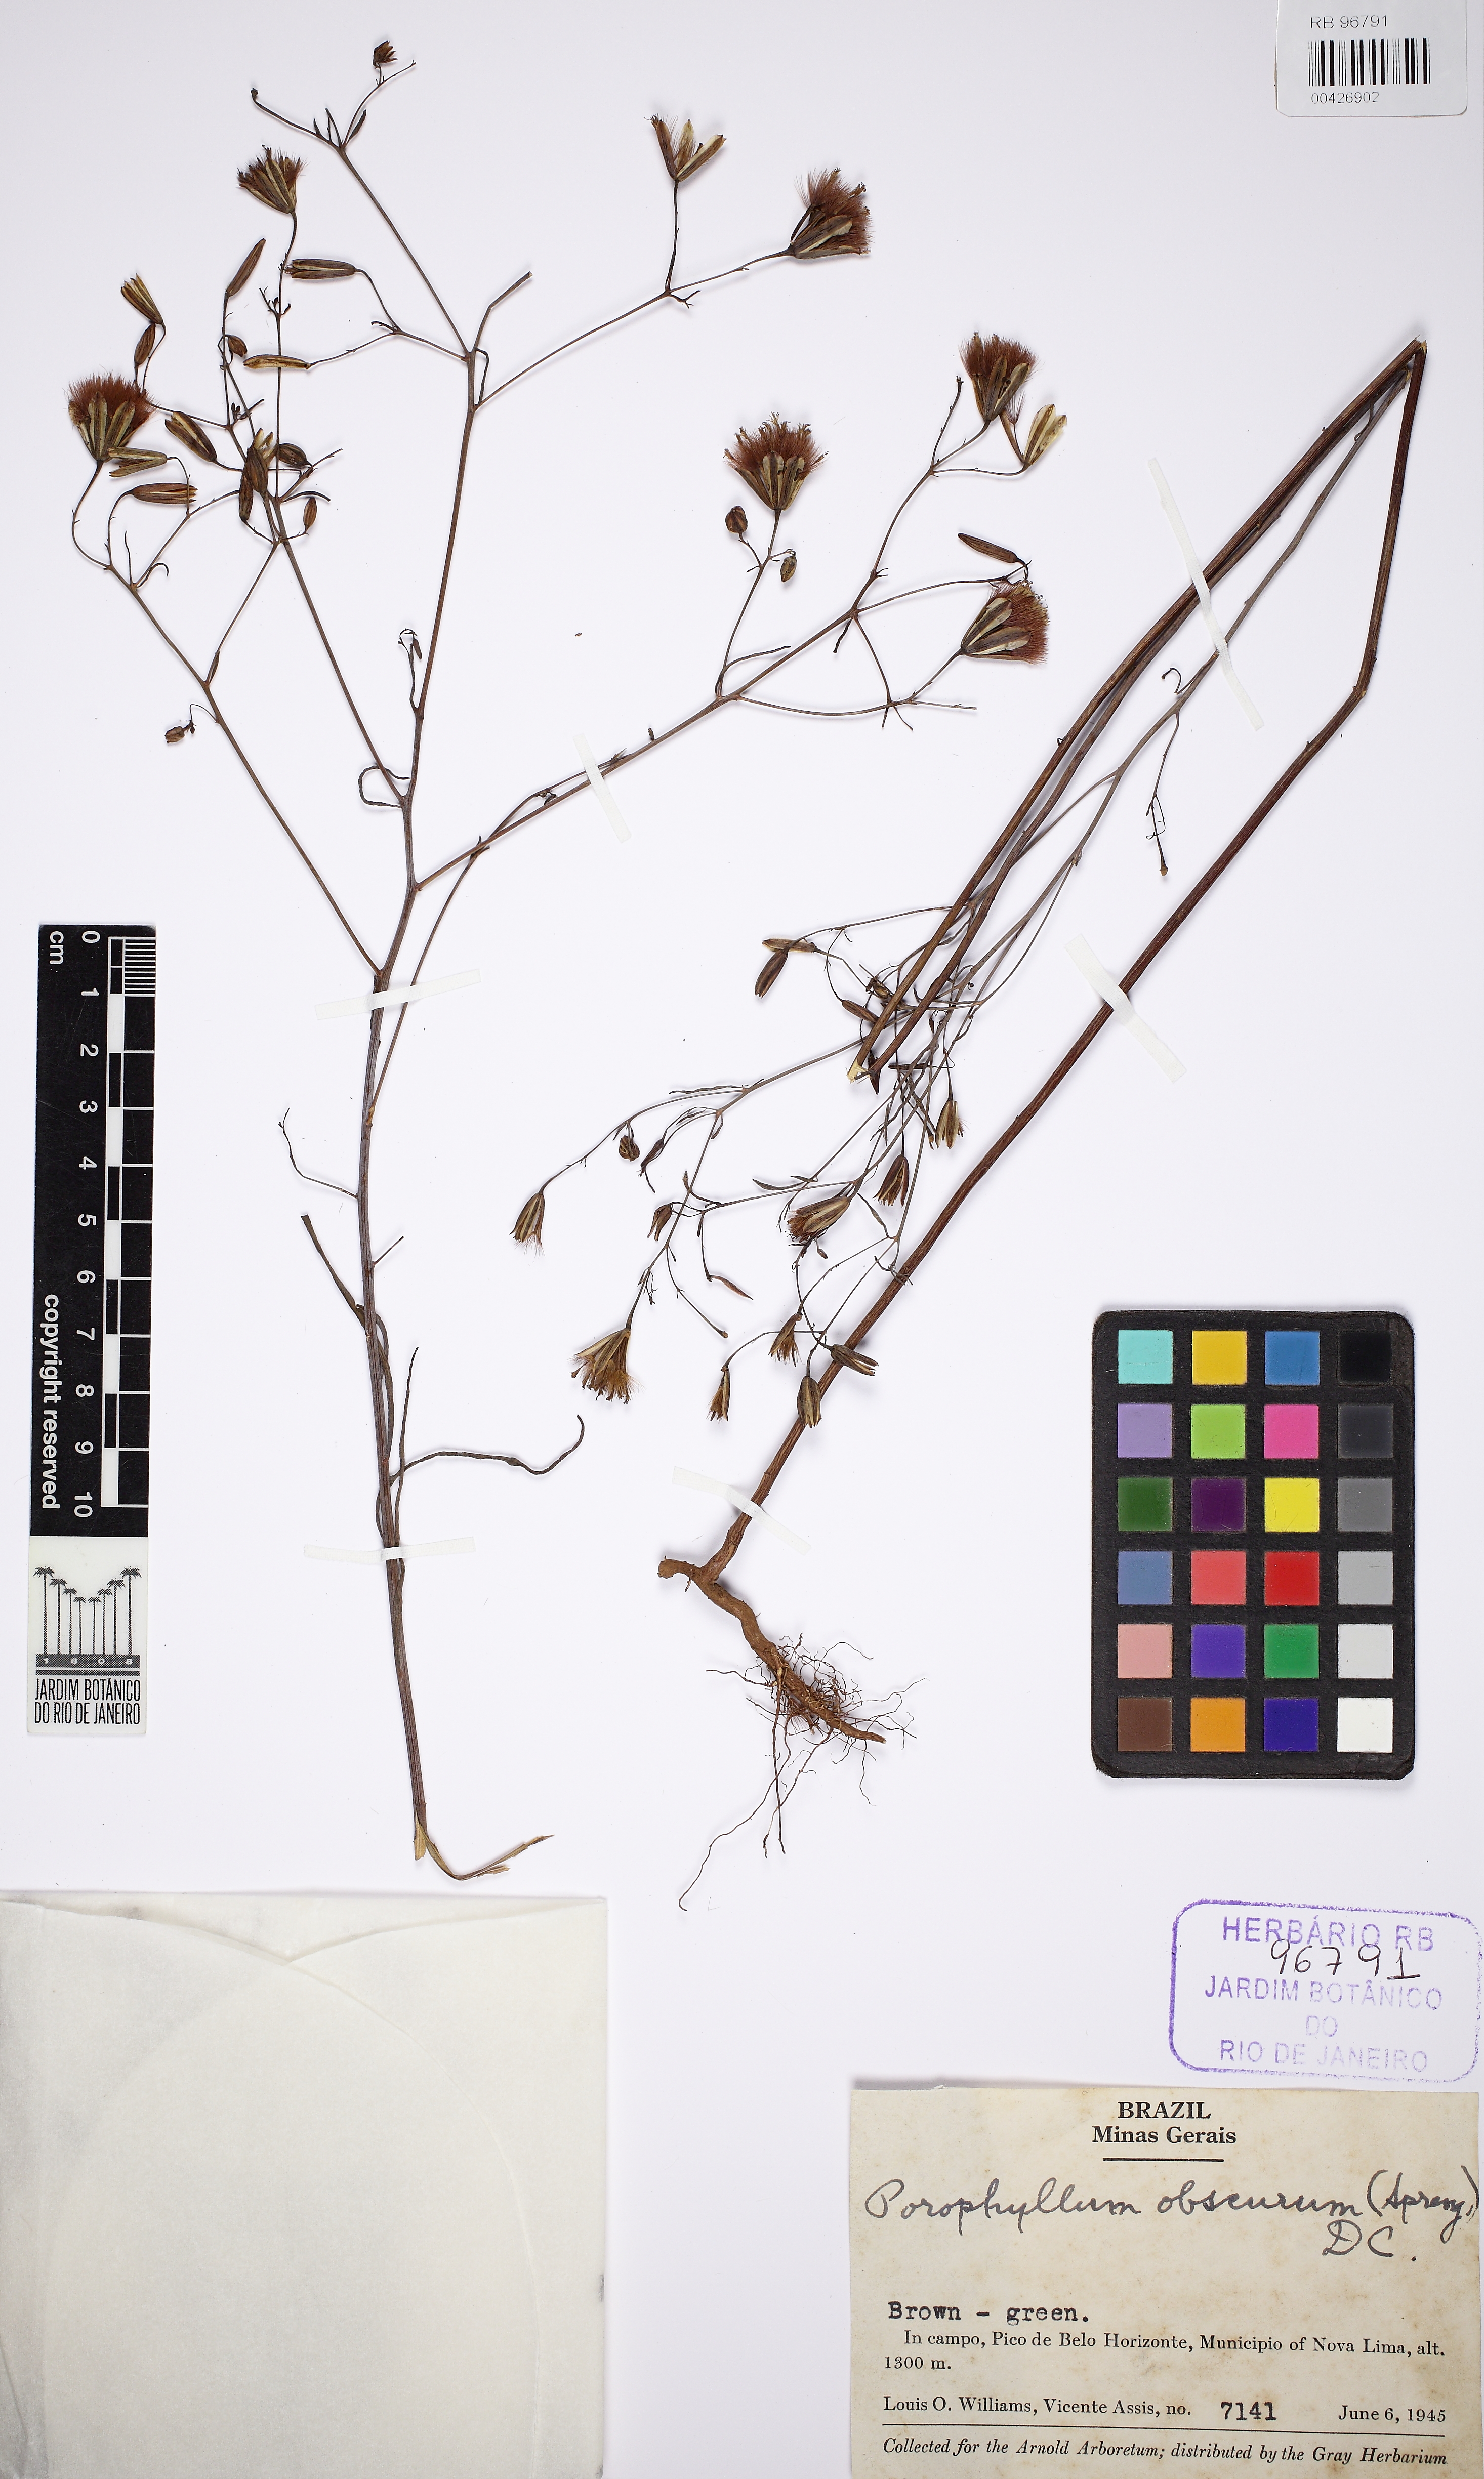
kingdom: Plantae
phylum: Tracheophyta
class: Magnoliopsida
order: Asterales
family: Asteraceae
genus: Porophyllum
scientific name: Porophyllum obscurum
